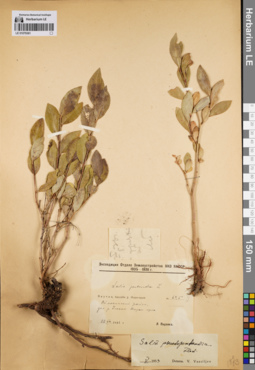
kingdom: Plantae
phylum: Tracheophyta
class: Magnoliopsida
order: Malpighiales
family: Salicaceae
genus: Salix
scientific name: Salix pseudopentandra
